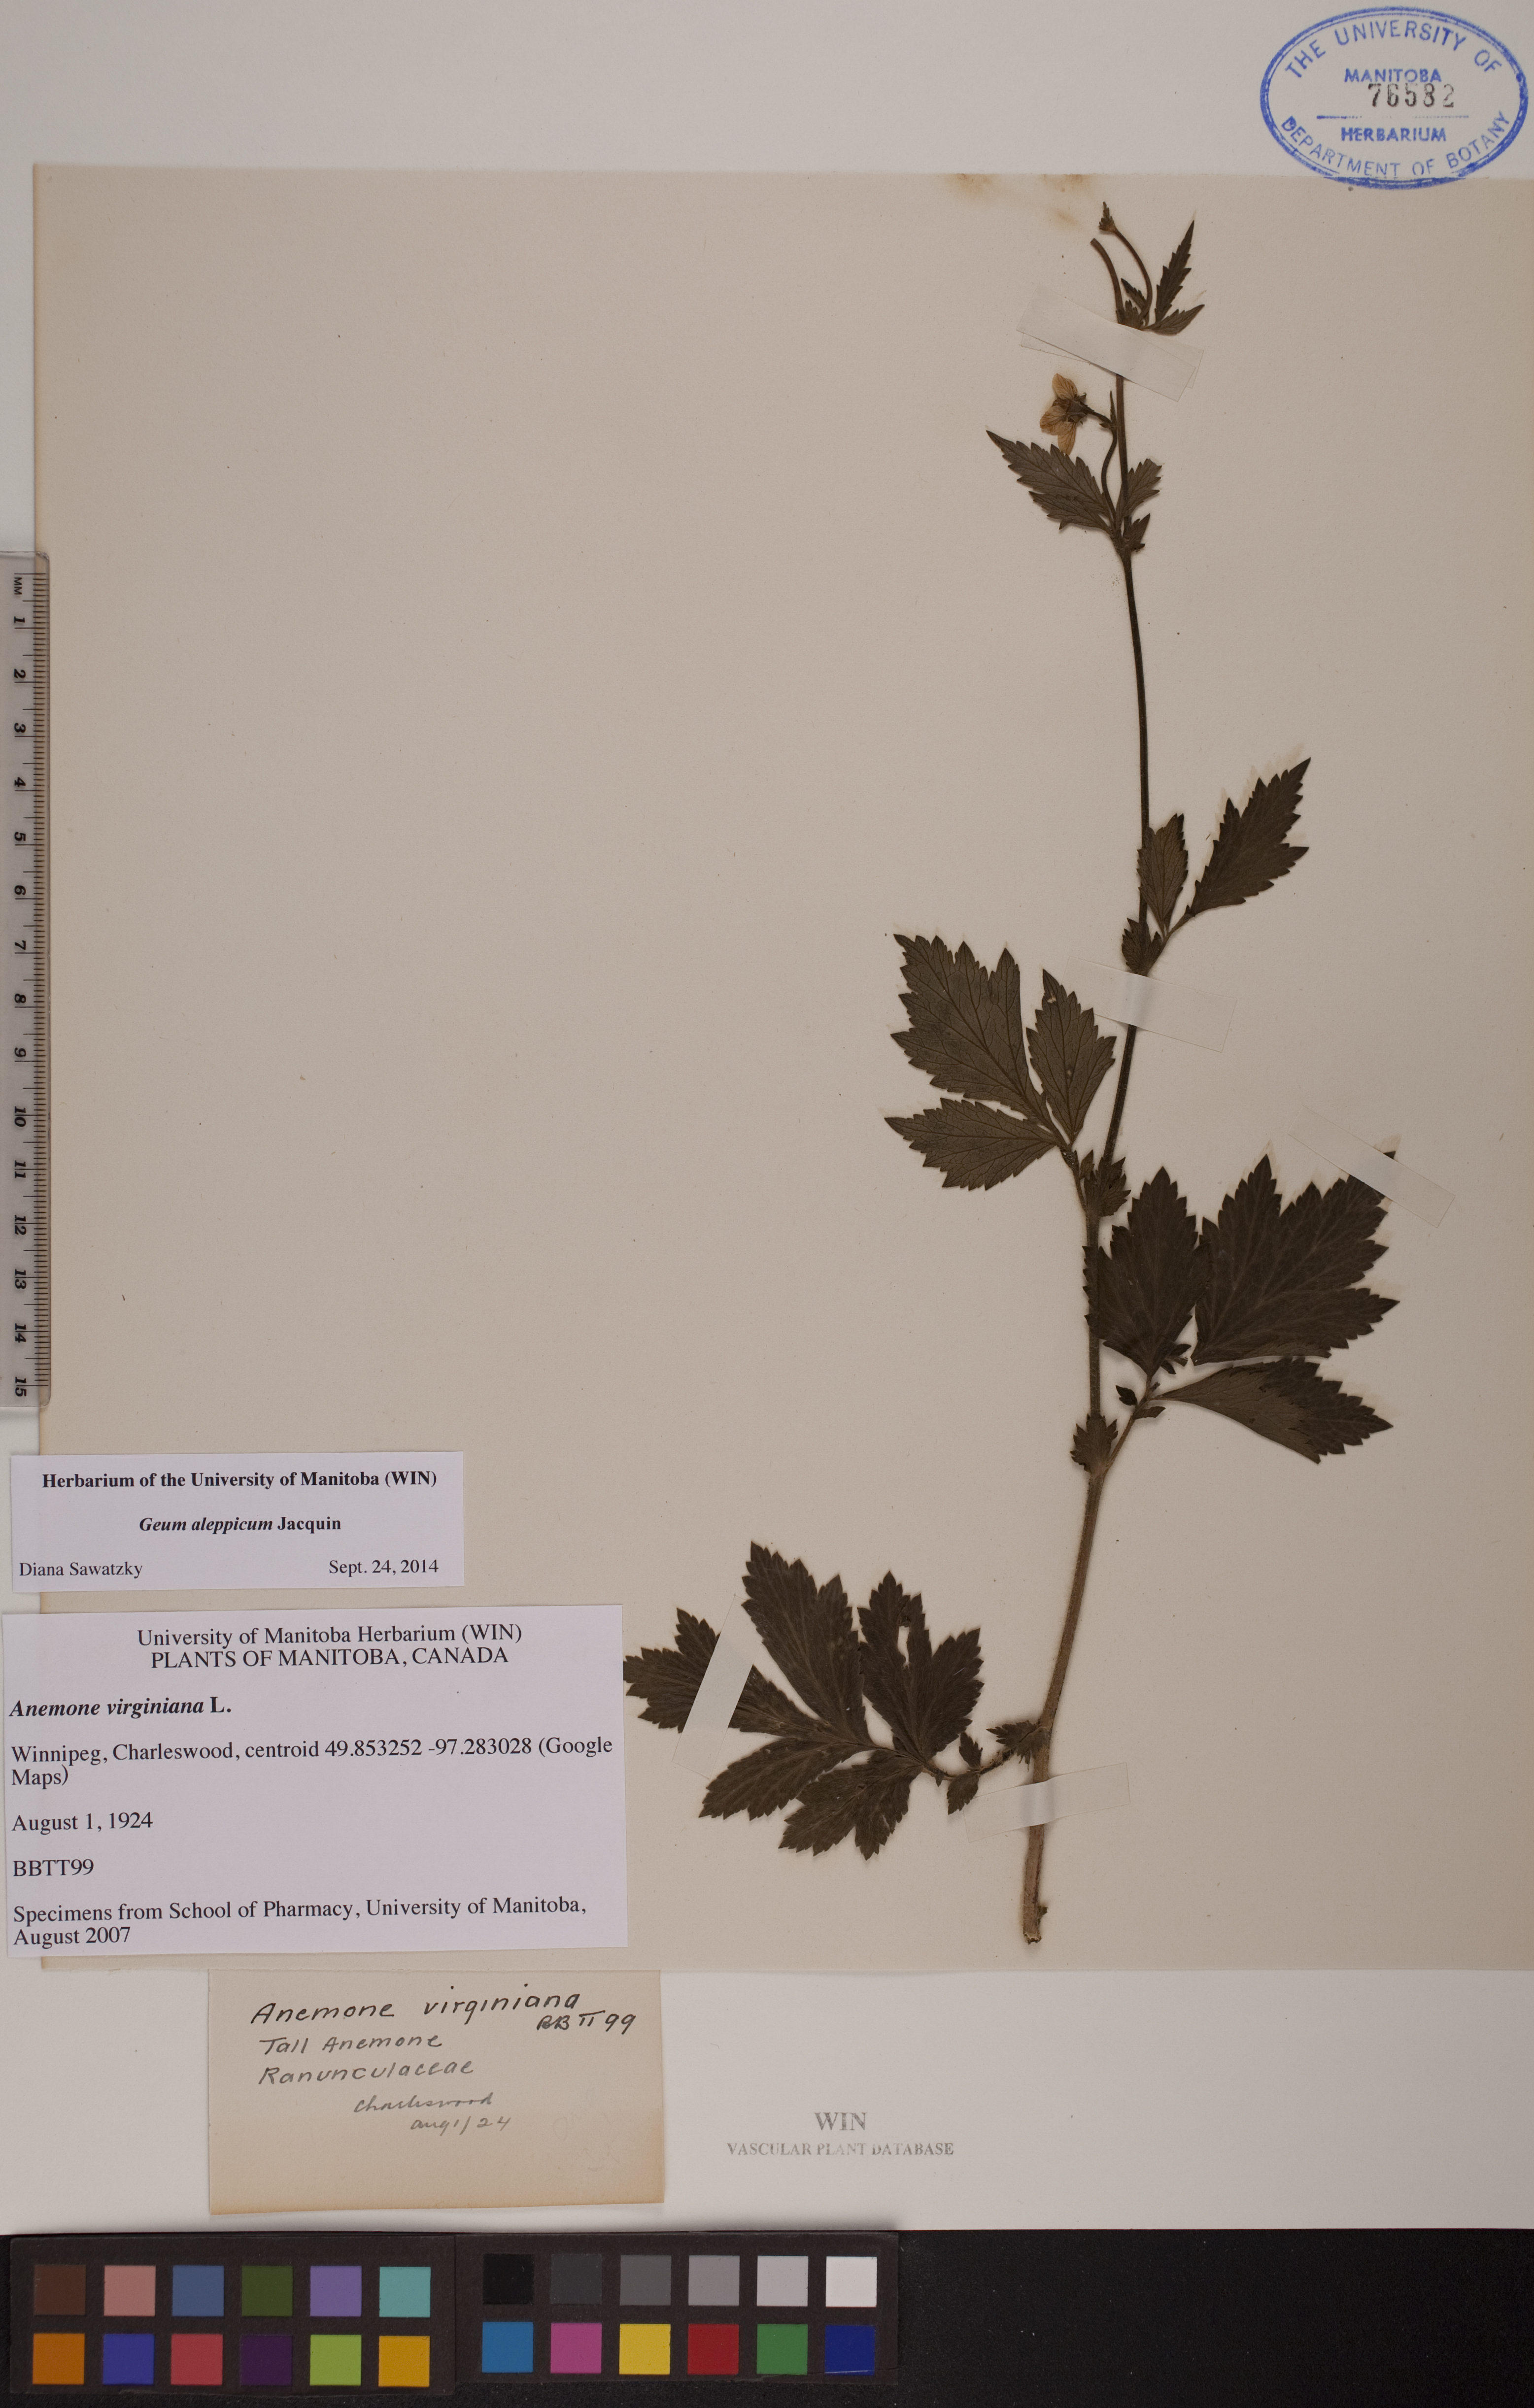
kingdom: Plantae
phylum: Tracheophyta
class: Magnoliopsida
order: Rosales
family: Rosaceae
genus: Geum
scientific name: Geum aleppicum
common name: Yellow avens
